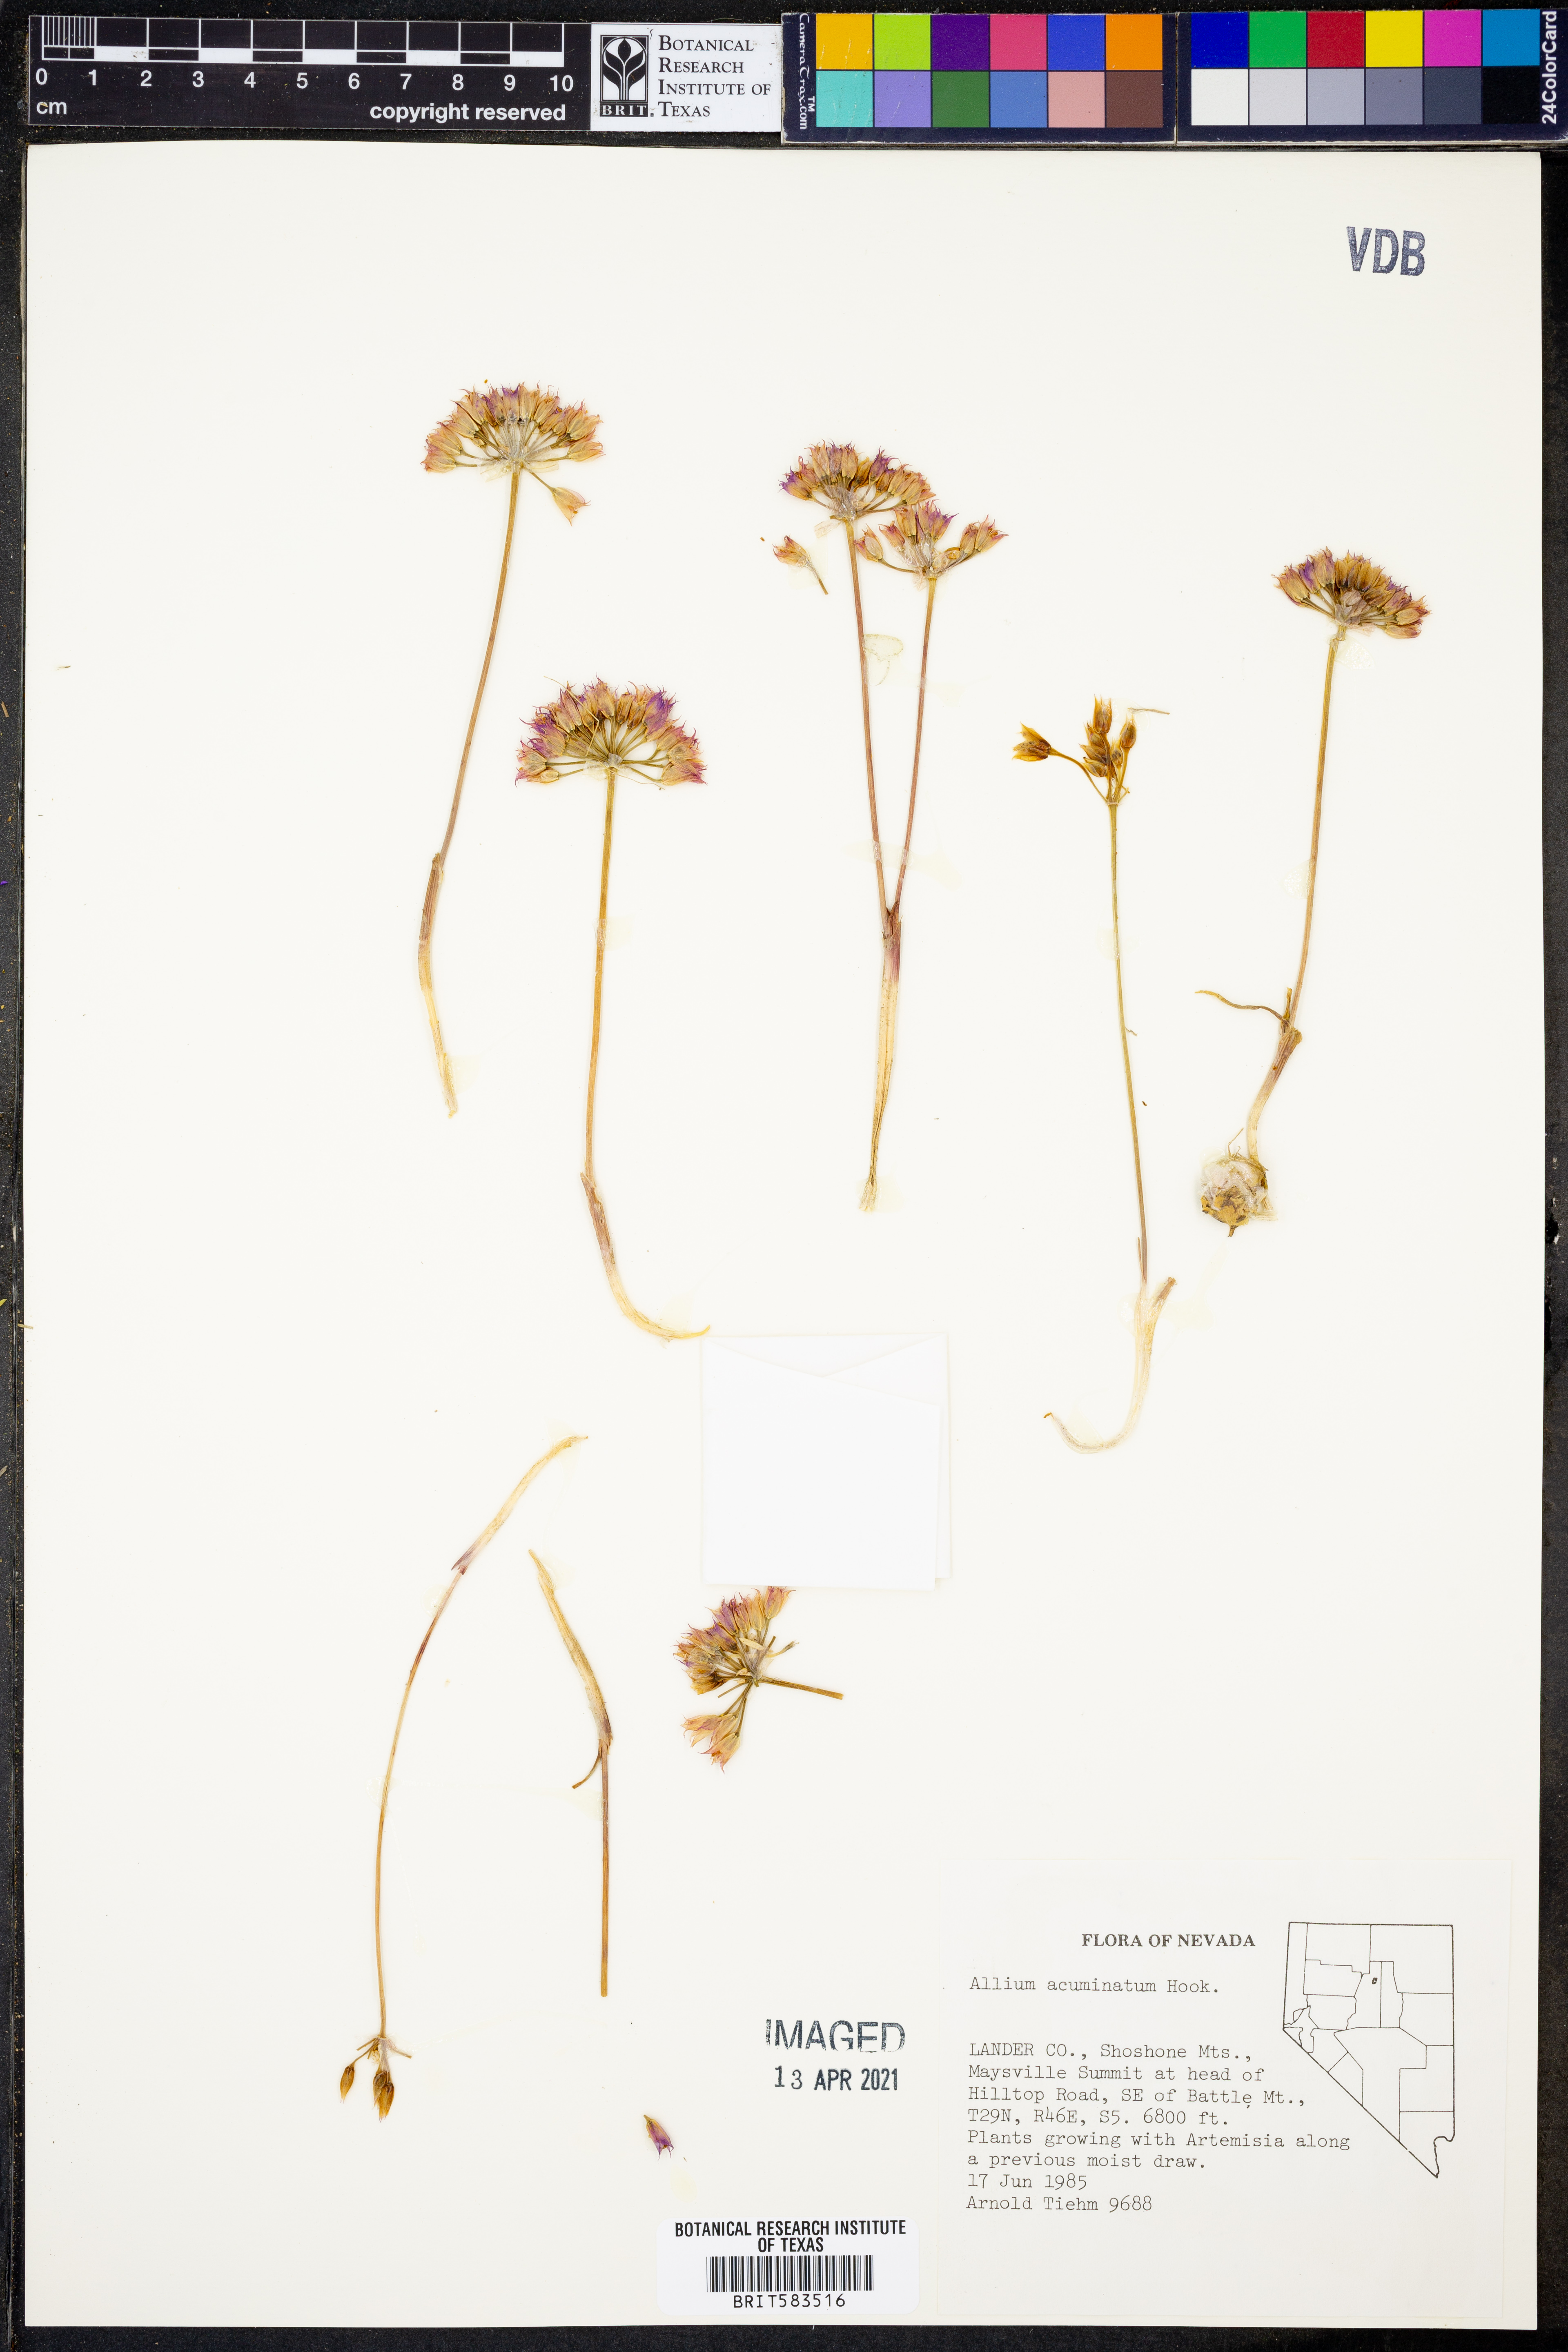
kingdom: Plantae
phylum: Tracheophyta
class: Liliopsida
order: Asparagales
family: Amaryllidaceae
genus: Allium
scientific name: Allium acuminatum
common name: Hooker's onion
